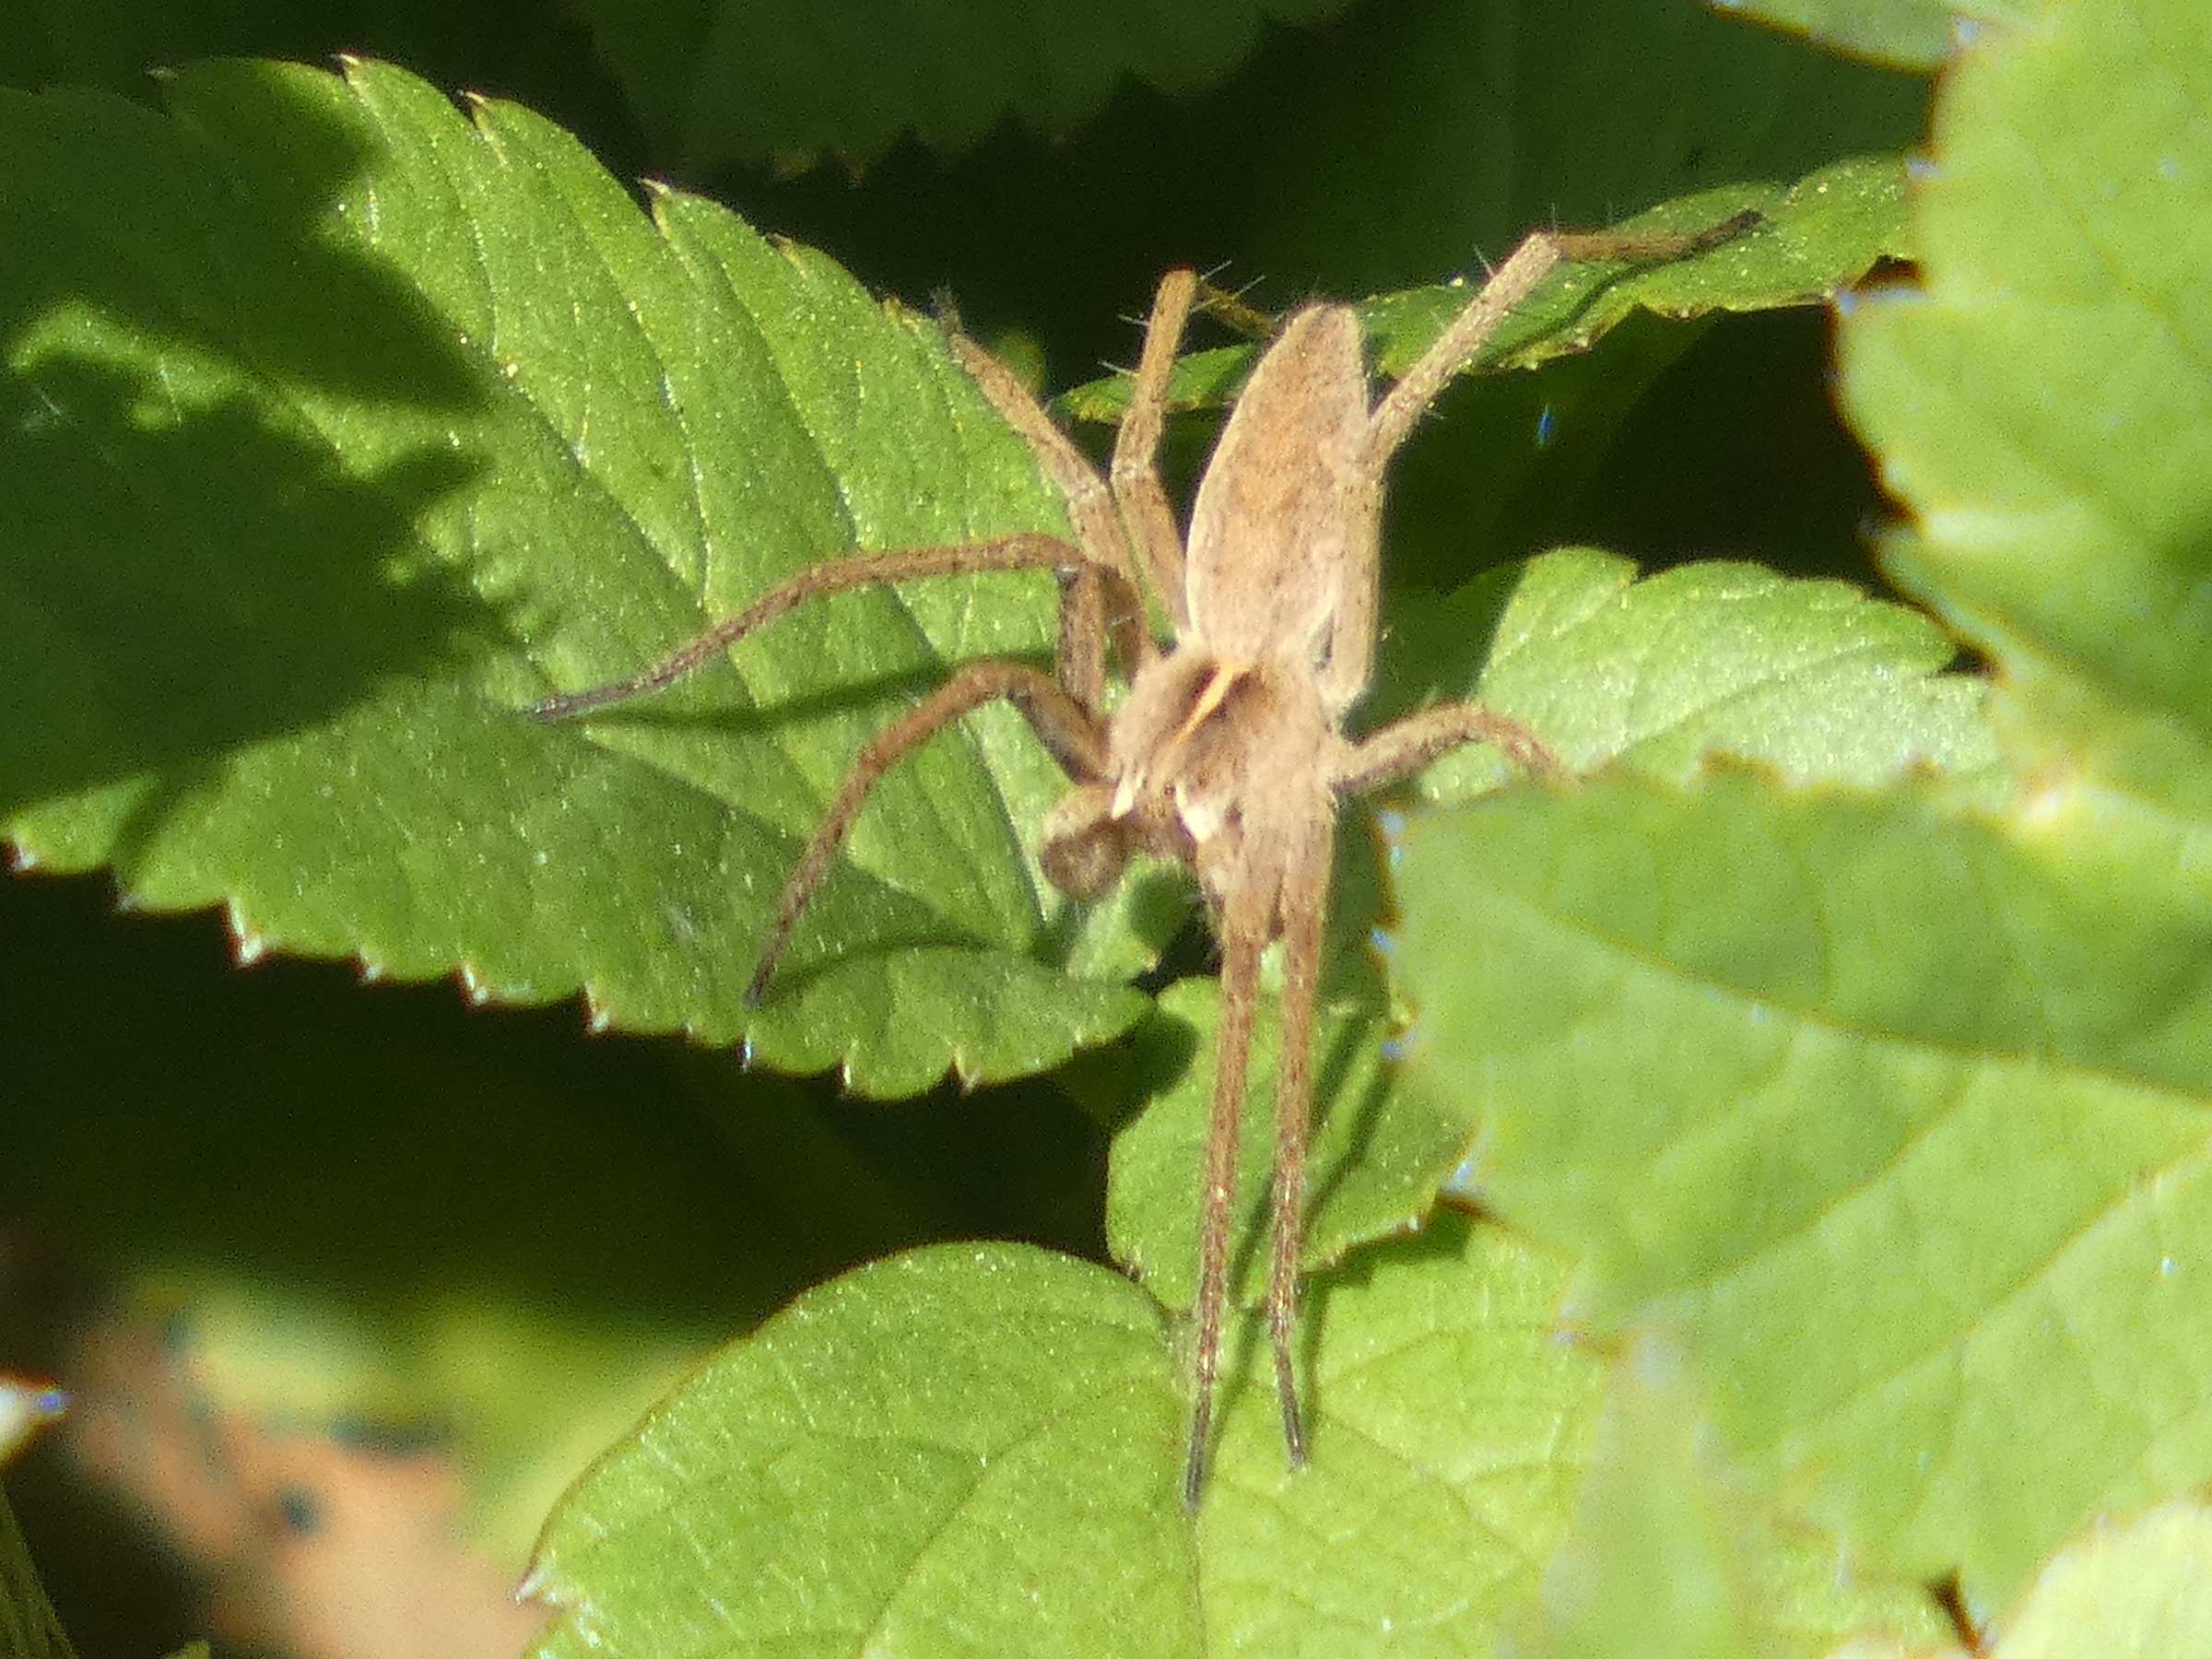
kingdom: Animalia
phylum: Arthropoda
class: Arachnida
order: Araneae
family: Pisauridae
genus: Pisaura
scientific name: Pisaura mirabilis
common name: Almindelig rovedderkop
